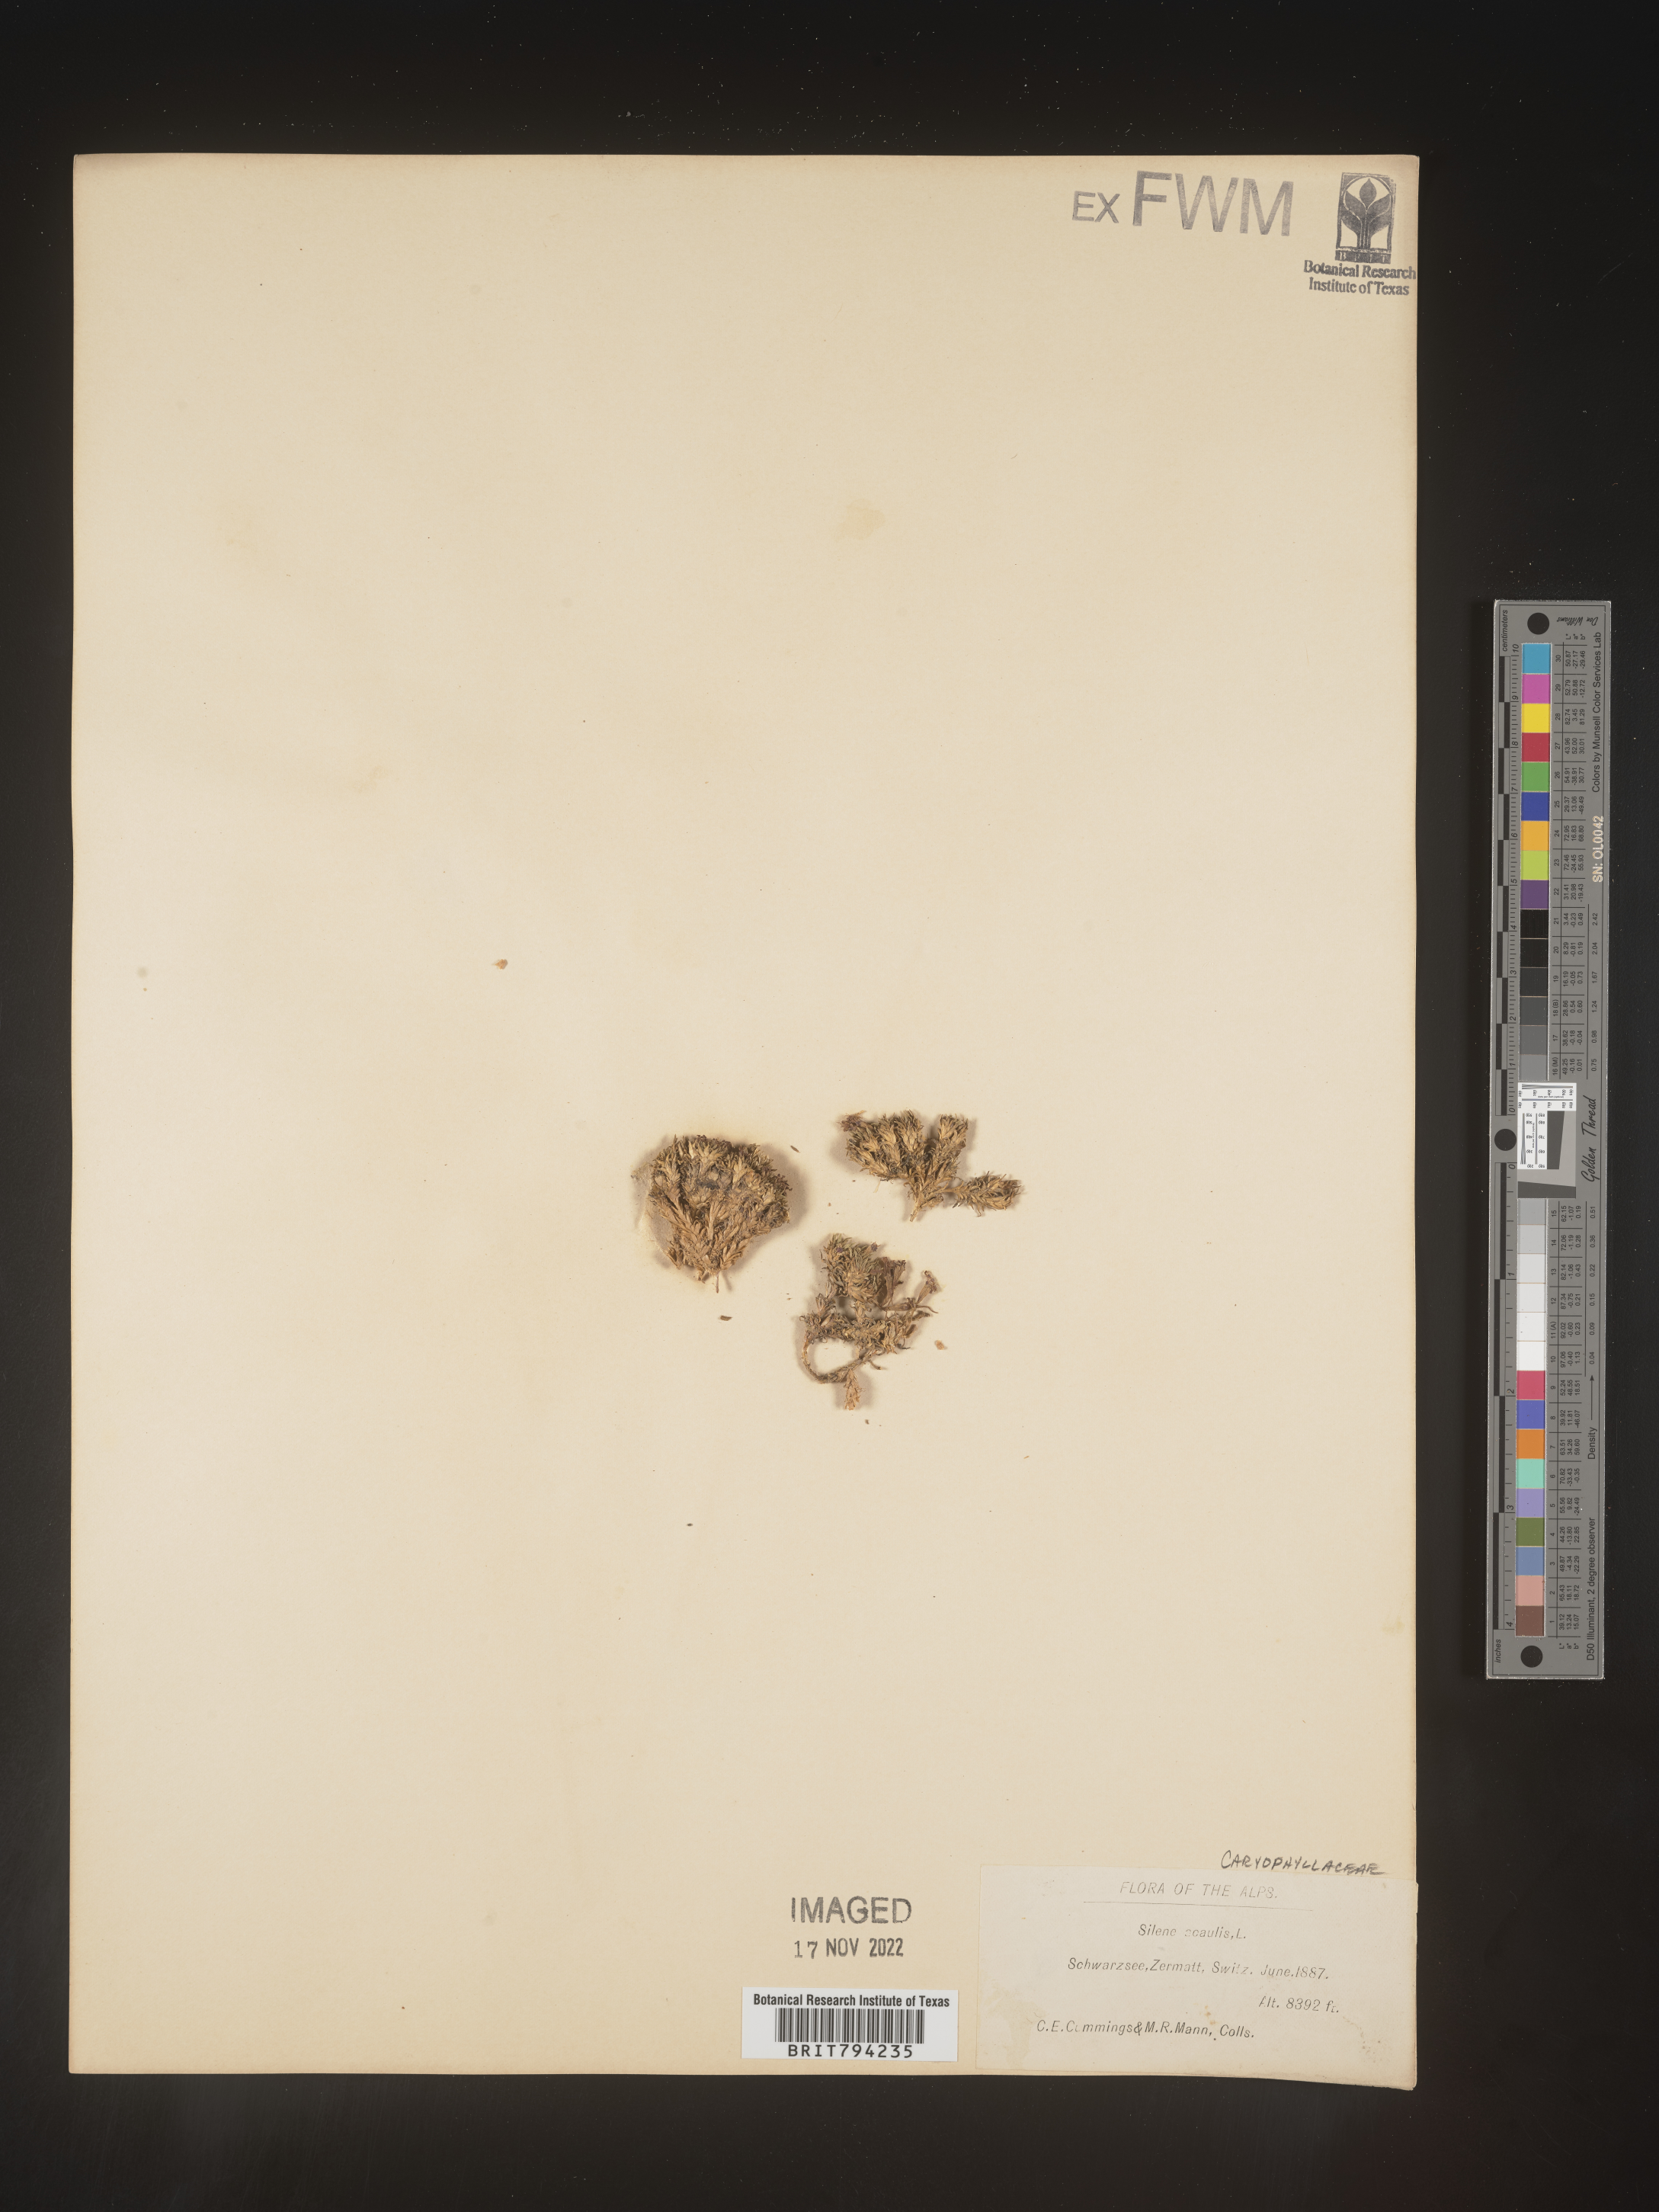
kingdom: Plantae
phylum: Tracheophyta
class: Magnoliopsida
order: Caryophyllales
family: Caryophyllaceae
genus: Silene
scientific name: Silene acaulis
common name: Moss campion
